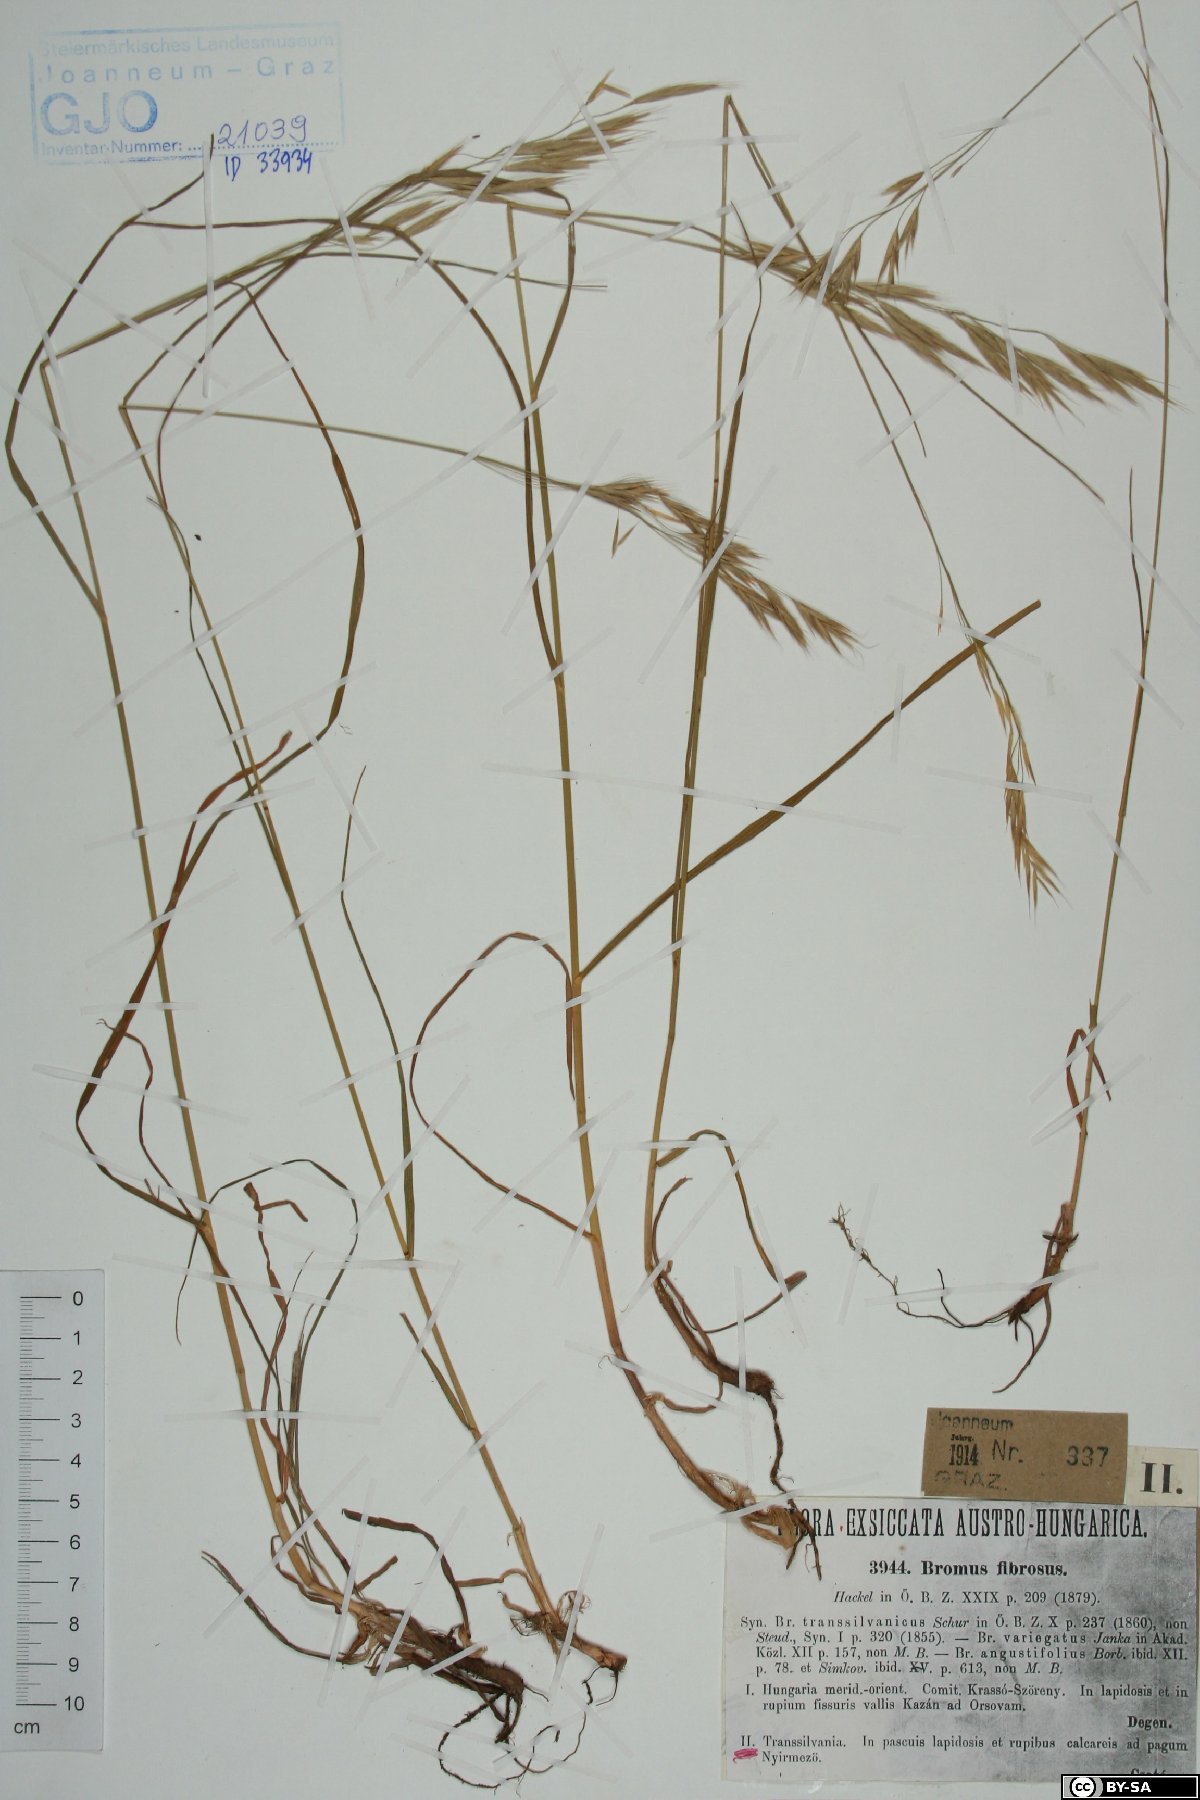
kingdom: Plantae
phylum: Tracheophyta
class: Liliopsida
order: Poales
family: Poaceae
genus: Bromus
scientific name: Bromus riparius
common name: Meadow brome
